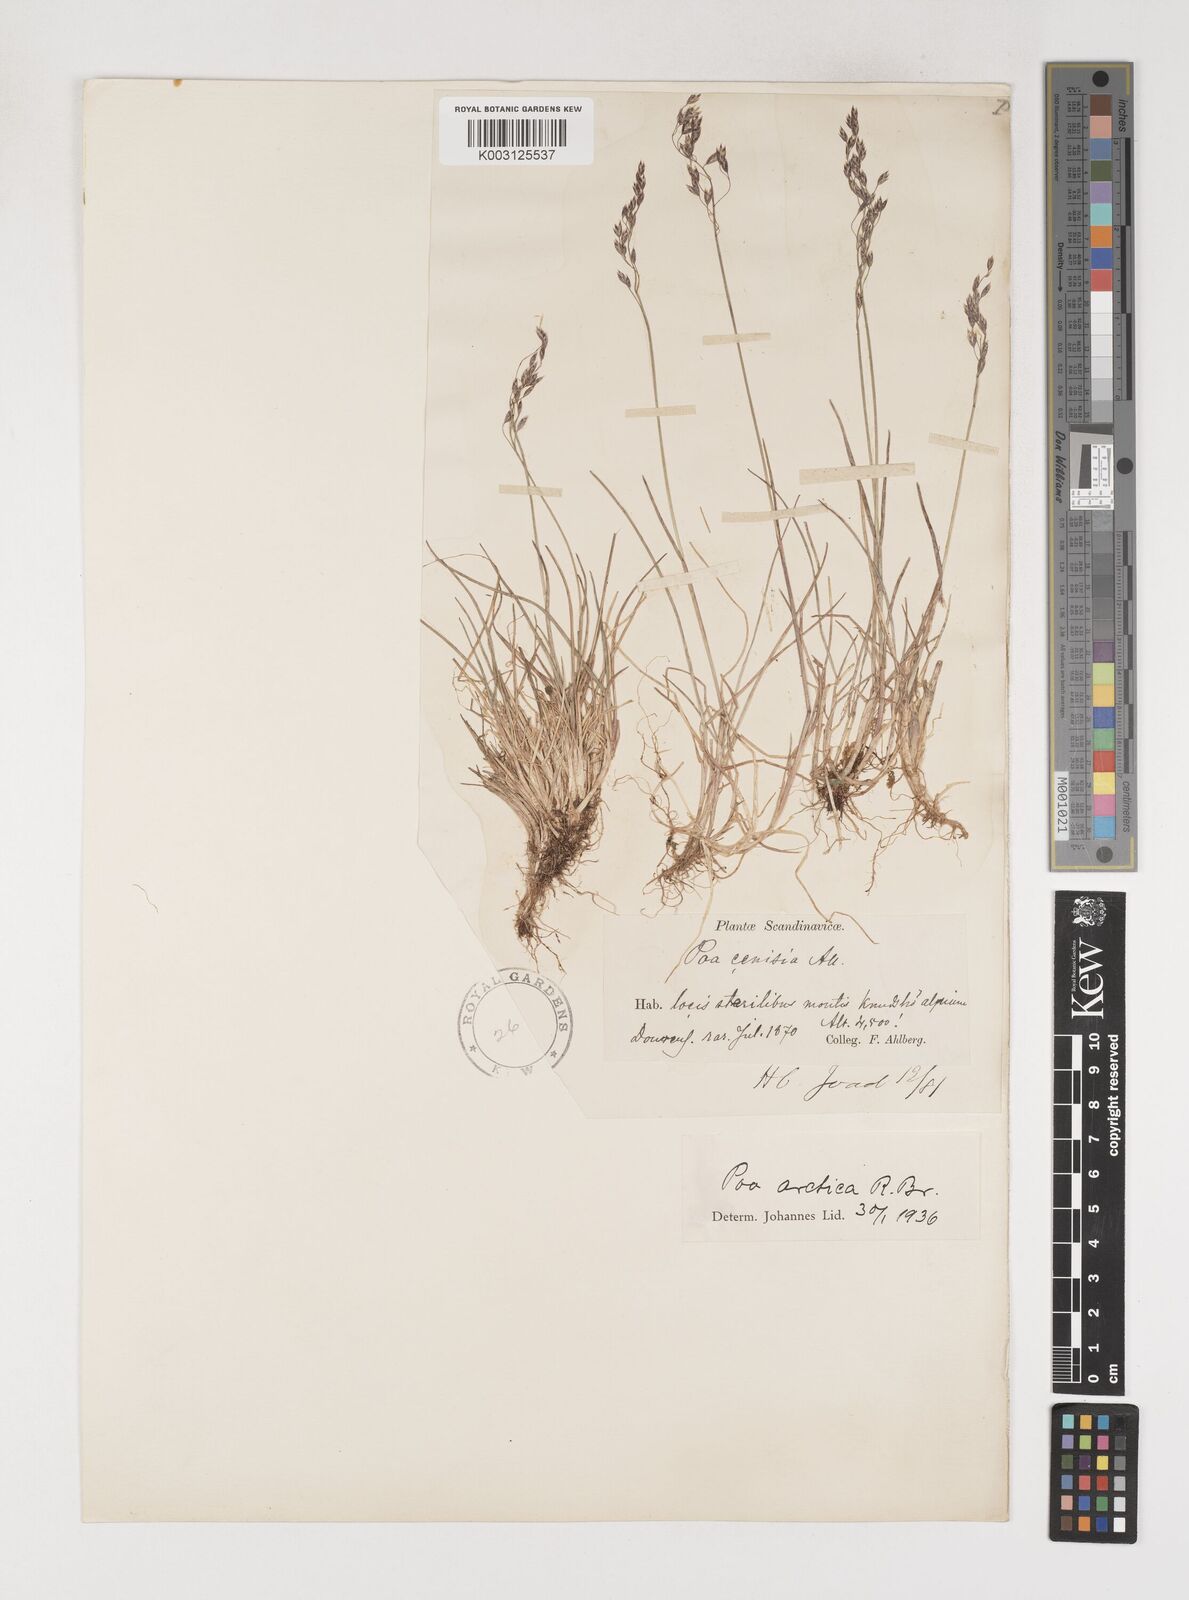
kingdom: Plantae
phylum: Tracheophyta
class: Liliopsida
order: Poales
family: Poaceae
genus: Poa
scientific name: Poa arctica
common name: Arctic bluegrass
